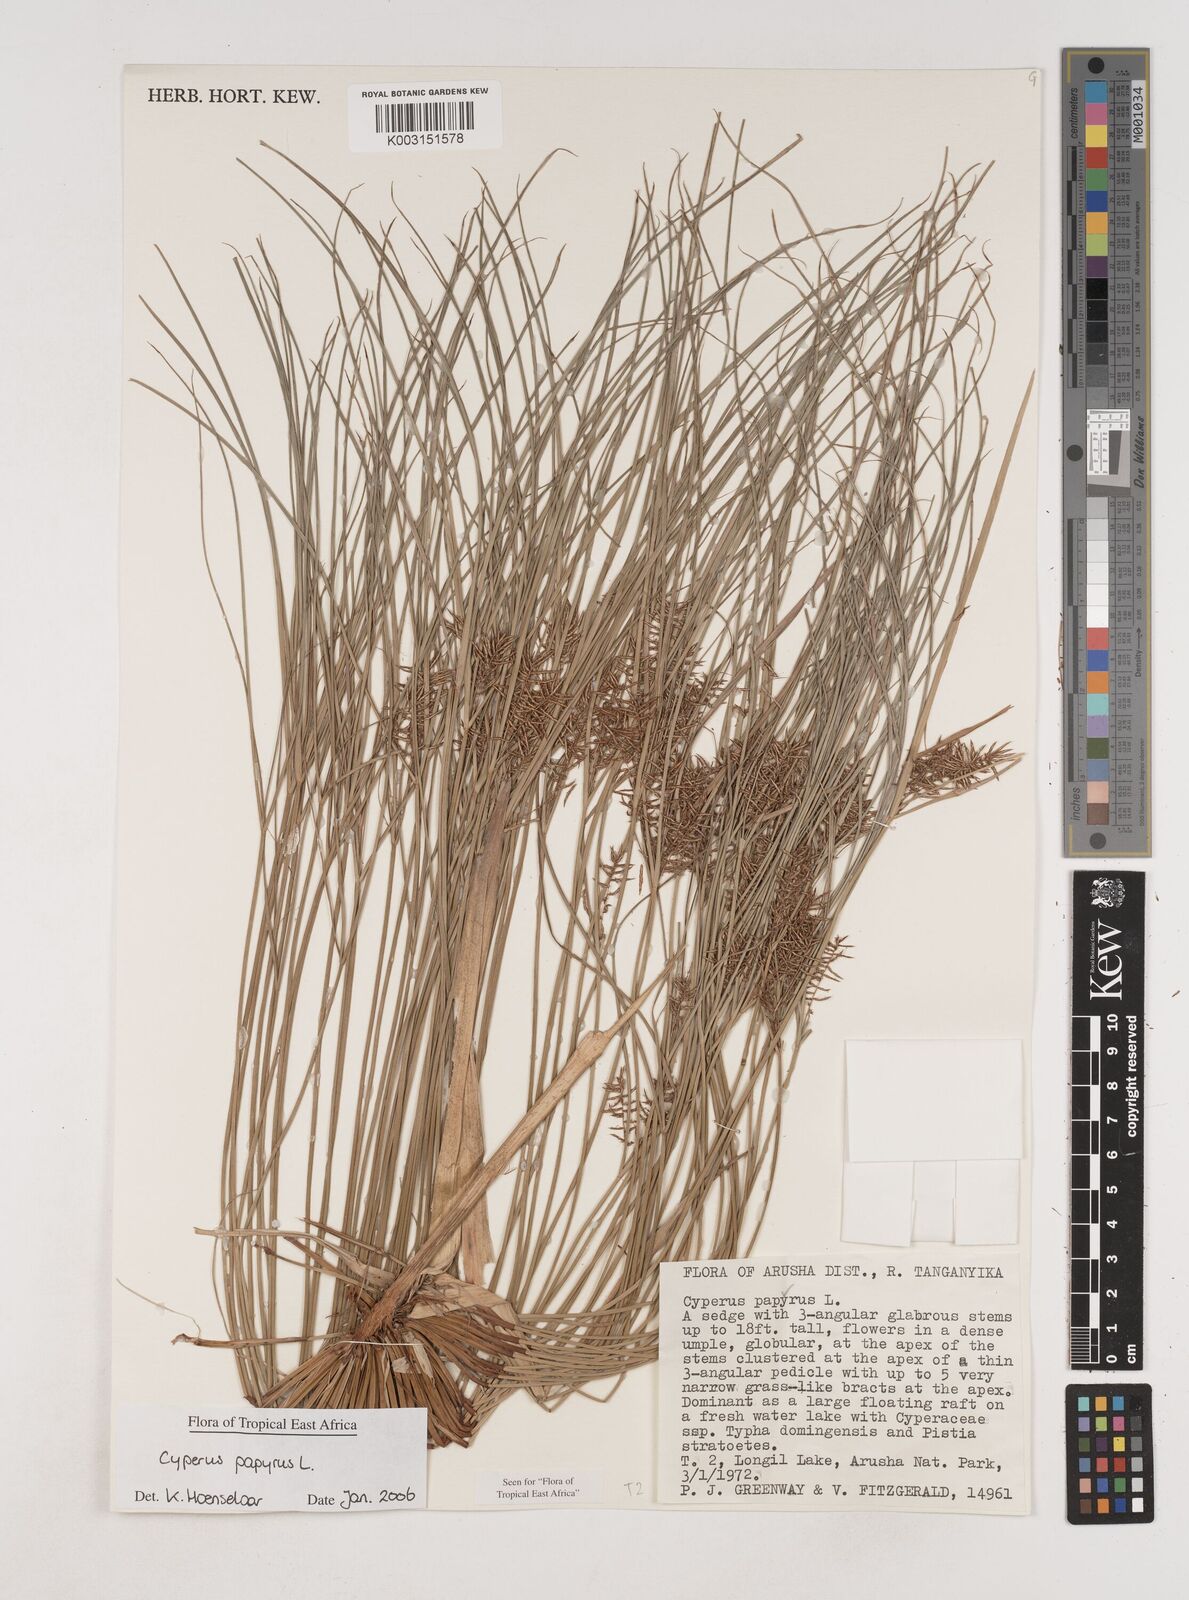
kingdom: Plantae
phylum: Tracheophyta
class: Liliopsida
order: Poales
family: Cyperaceae
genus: Cyperus
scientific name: Cyperus papyrus
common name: Papyrus
